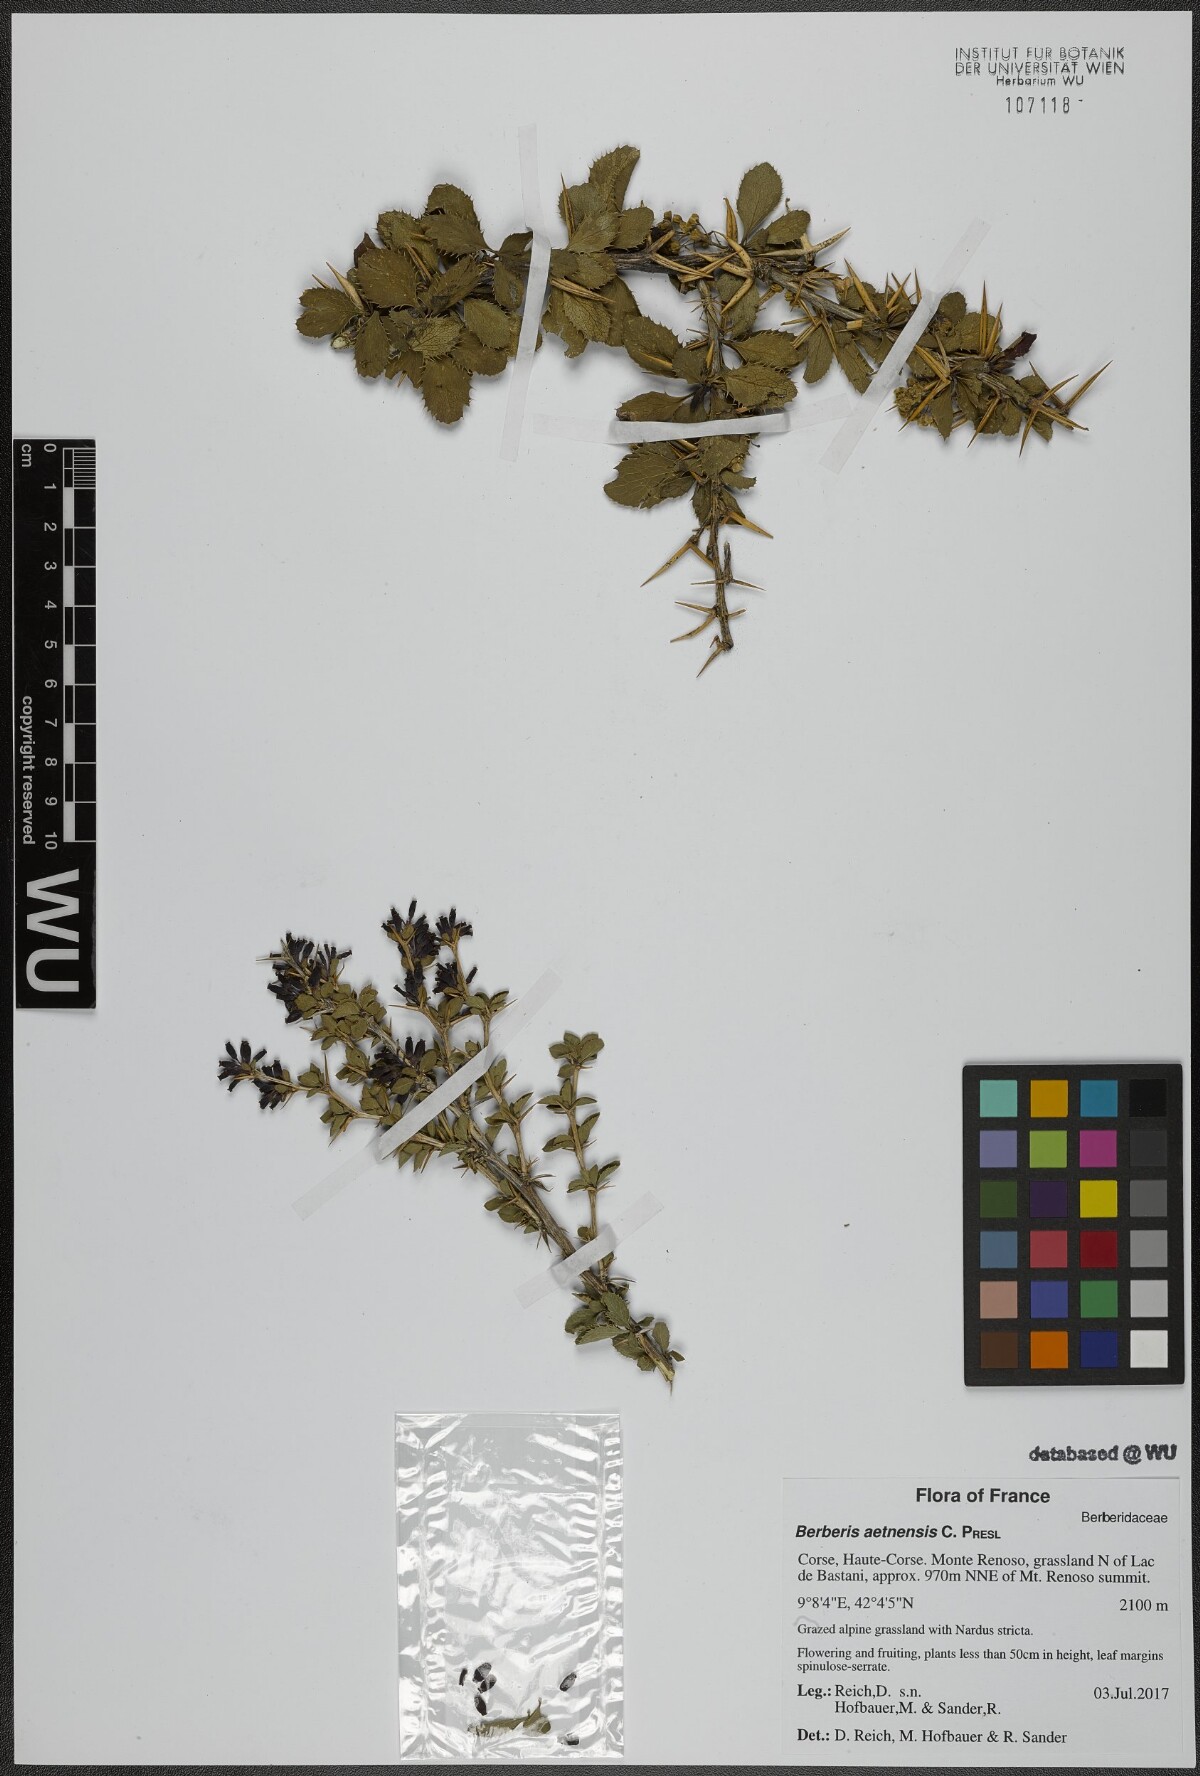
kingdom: Plantae
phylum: Tracheophyta
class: Magnoliopsida
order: Ranunculales
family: Berberidaceae
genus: Berberis
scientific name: Berberis aetnensis
